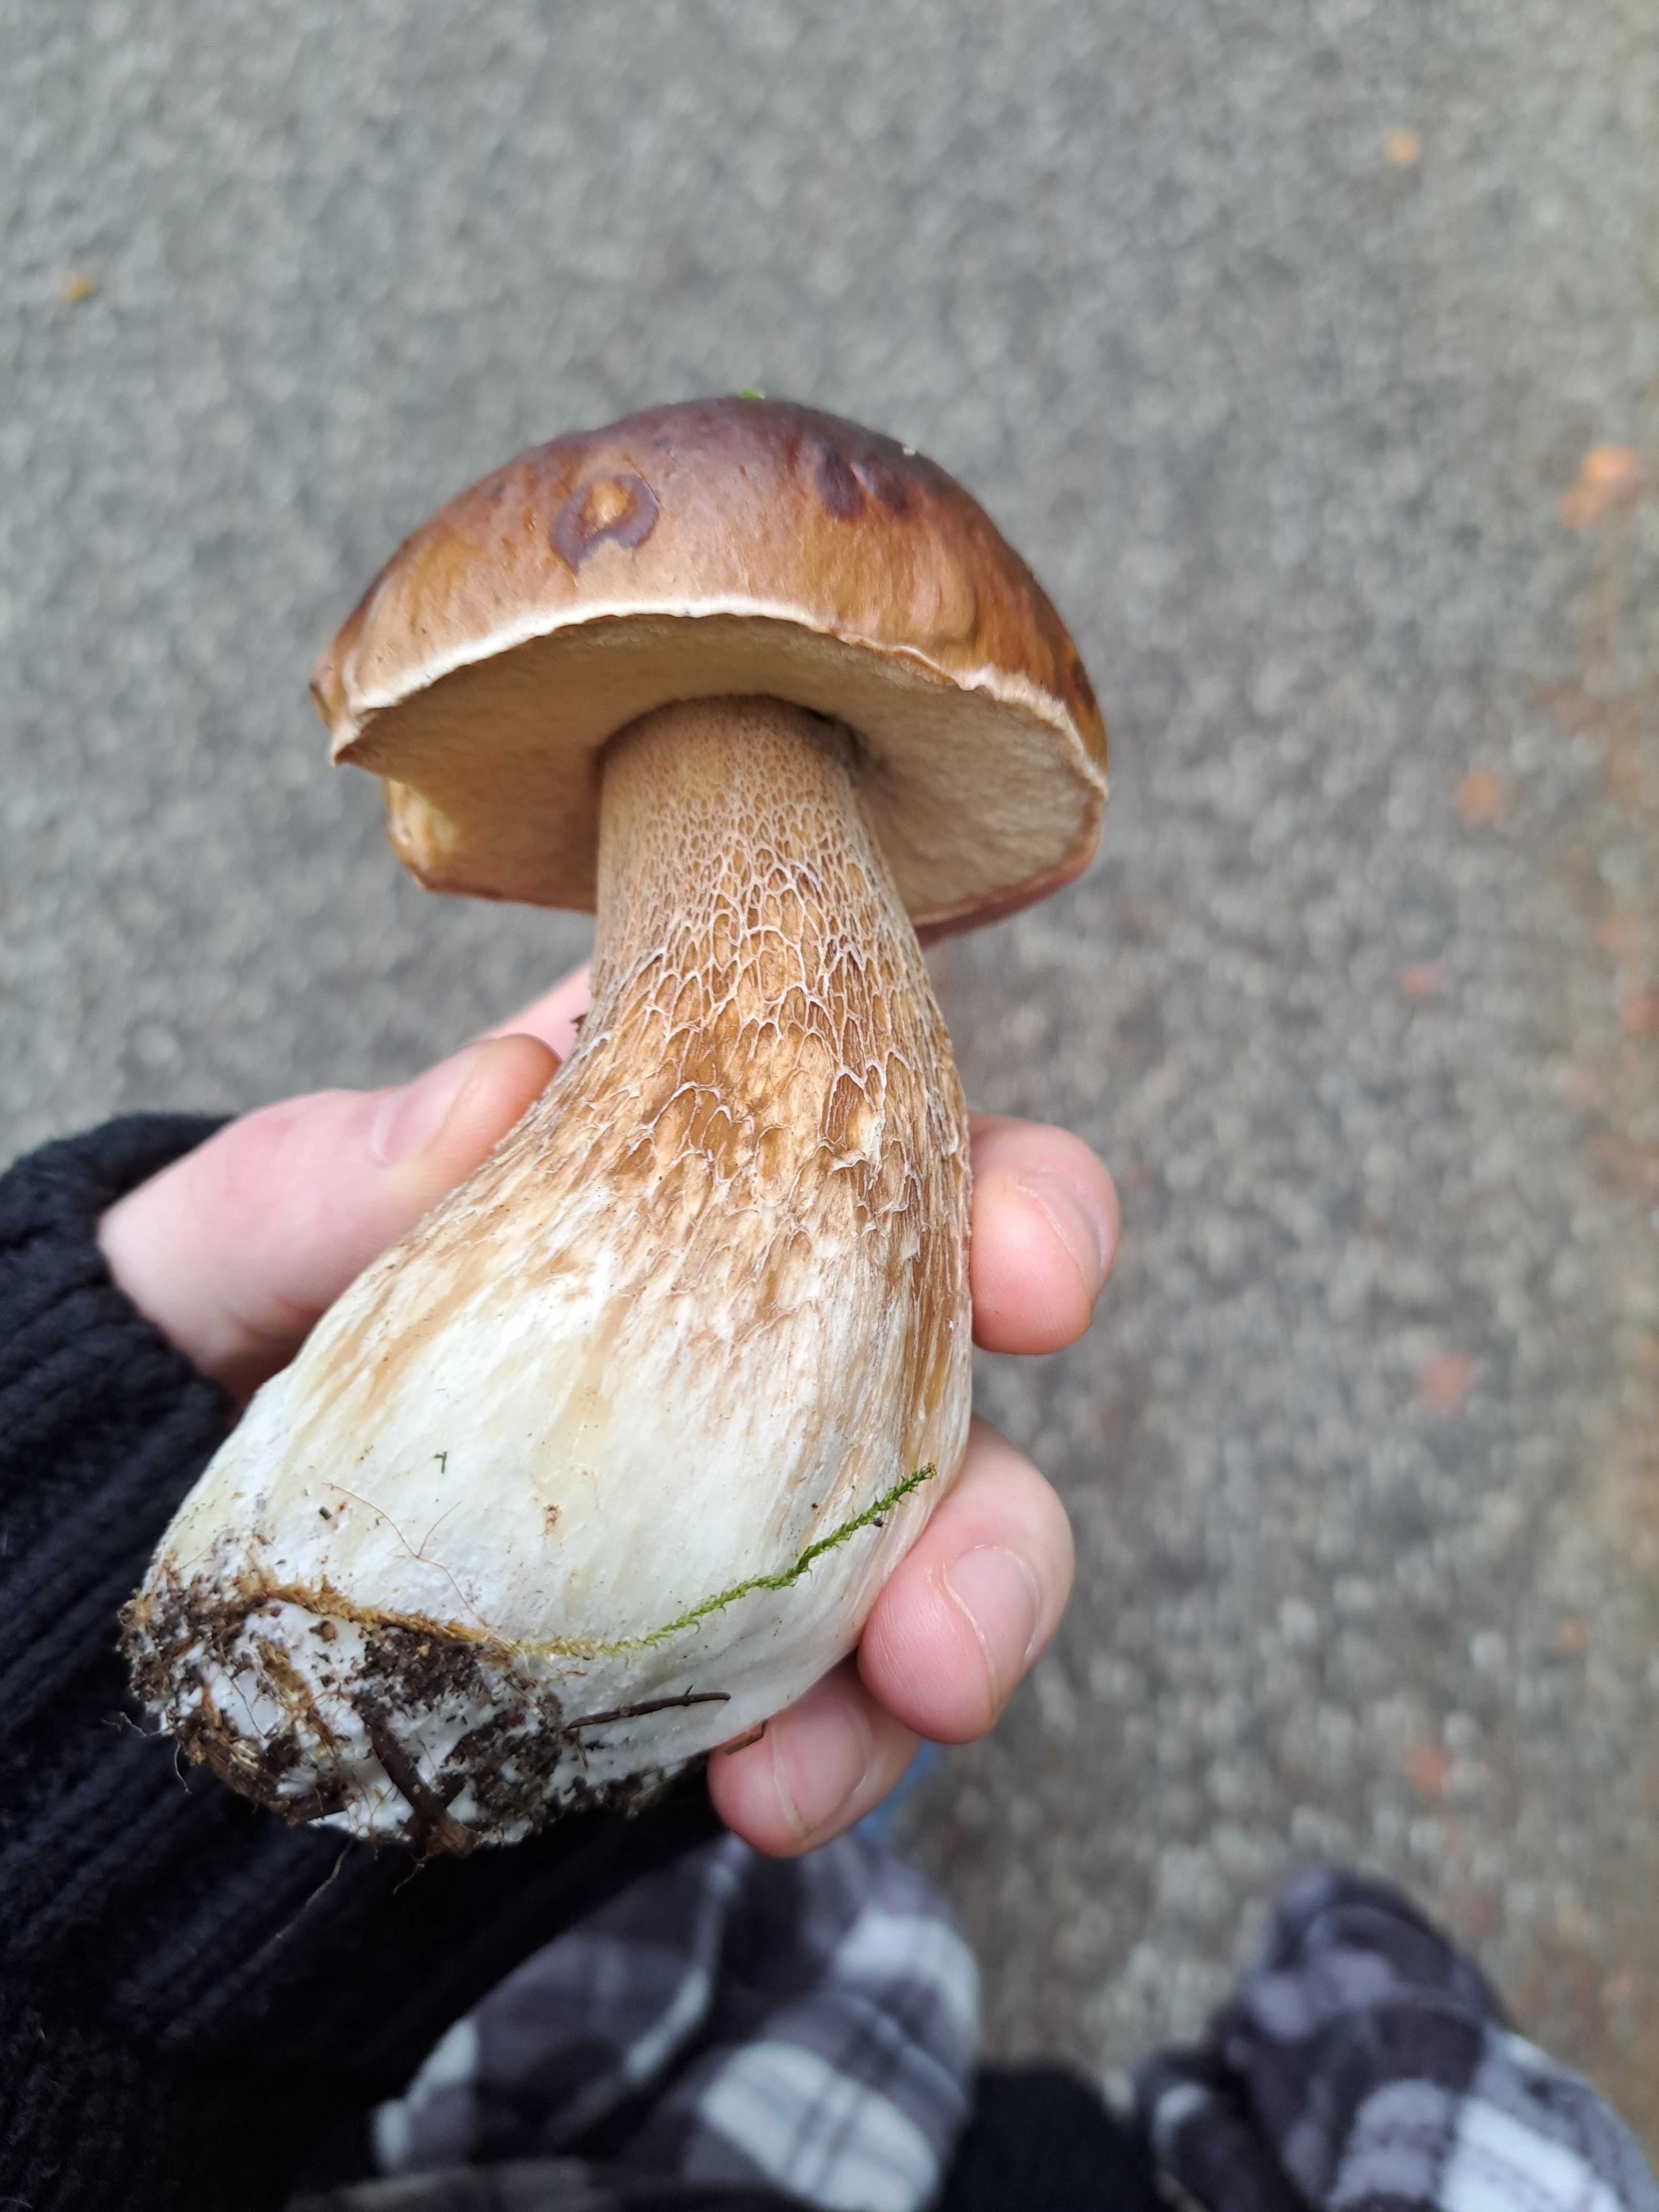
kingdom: Fungi
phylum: Basidiomycota
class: Agaricomycetes
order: Boletales
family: Boletaceae
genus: Boletus
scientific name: Boletus edulis
